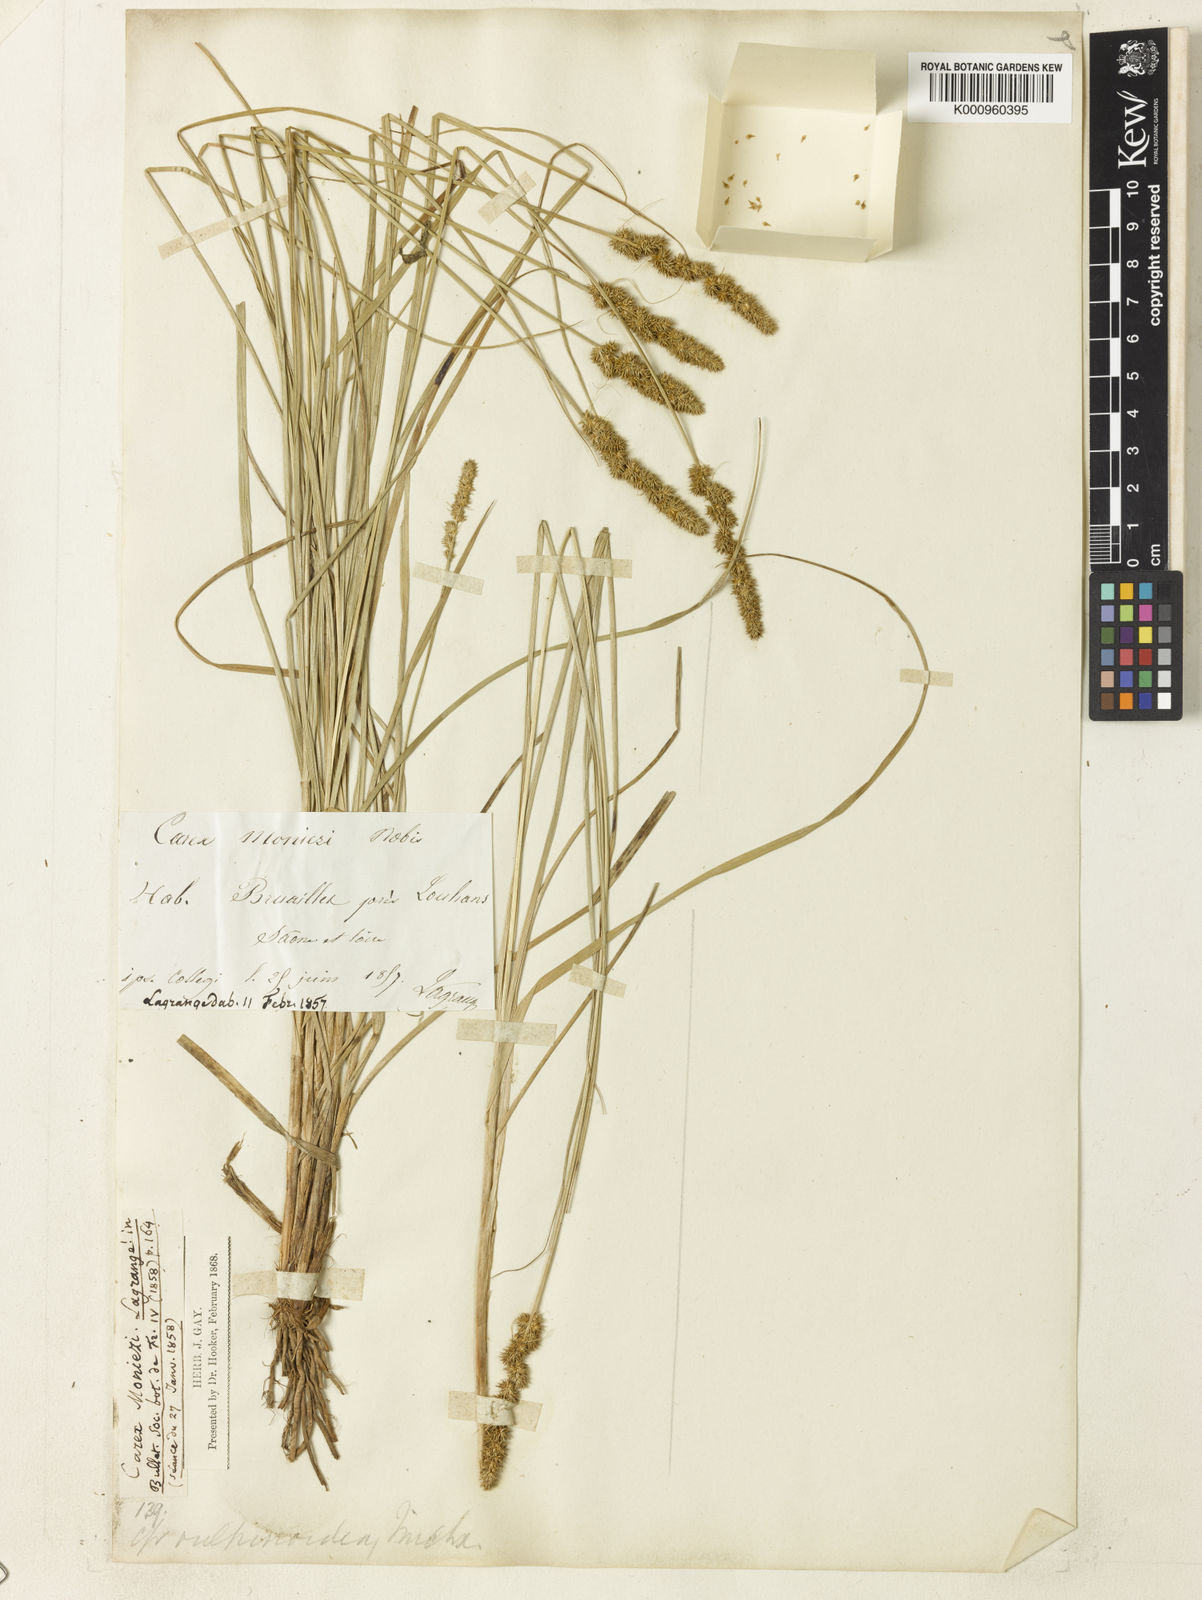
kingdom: Plantae
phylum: Tracheophyta
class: Liliopsida
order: Poales
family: Cyperaceae
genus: Carex
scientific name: Carex vulpinoidea
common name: American fox-sedge
